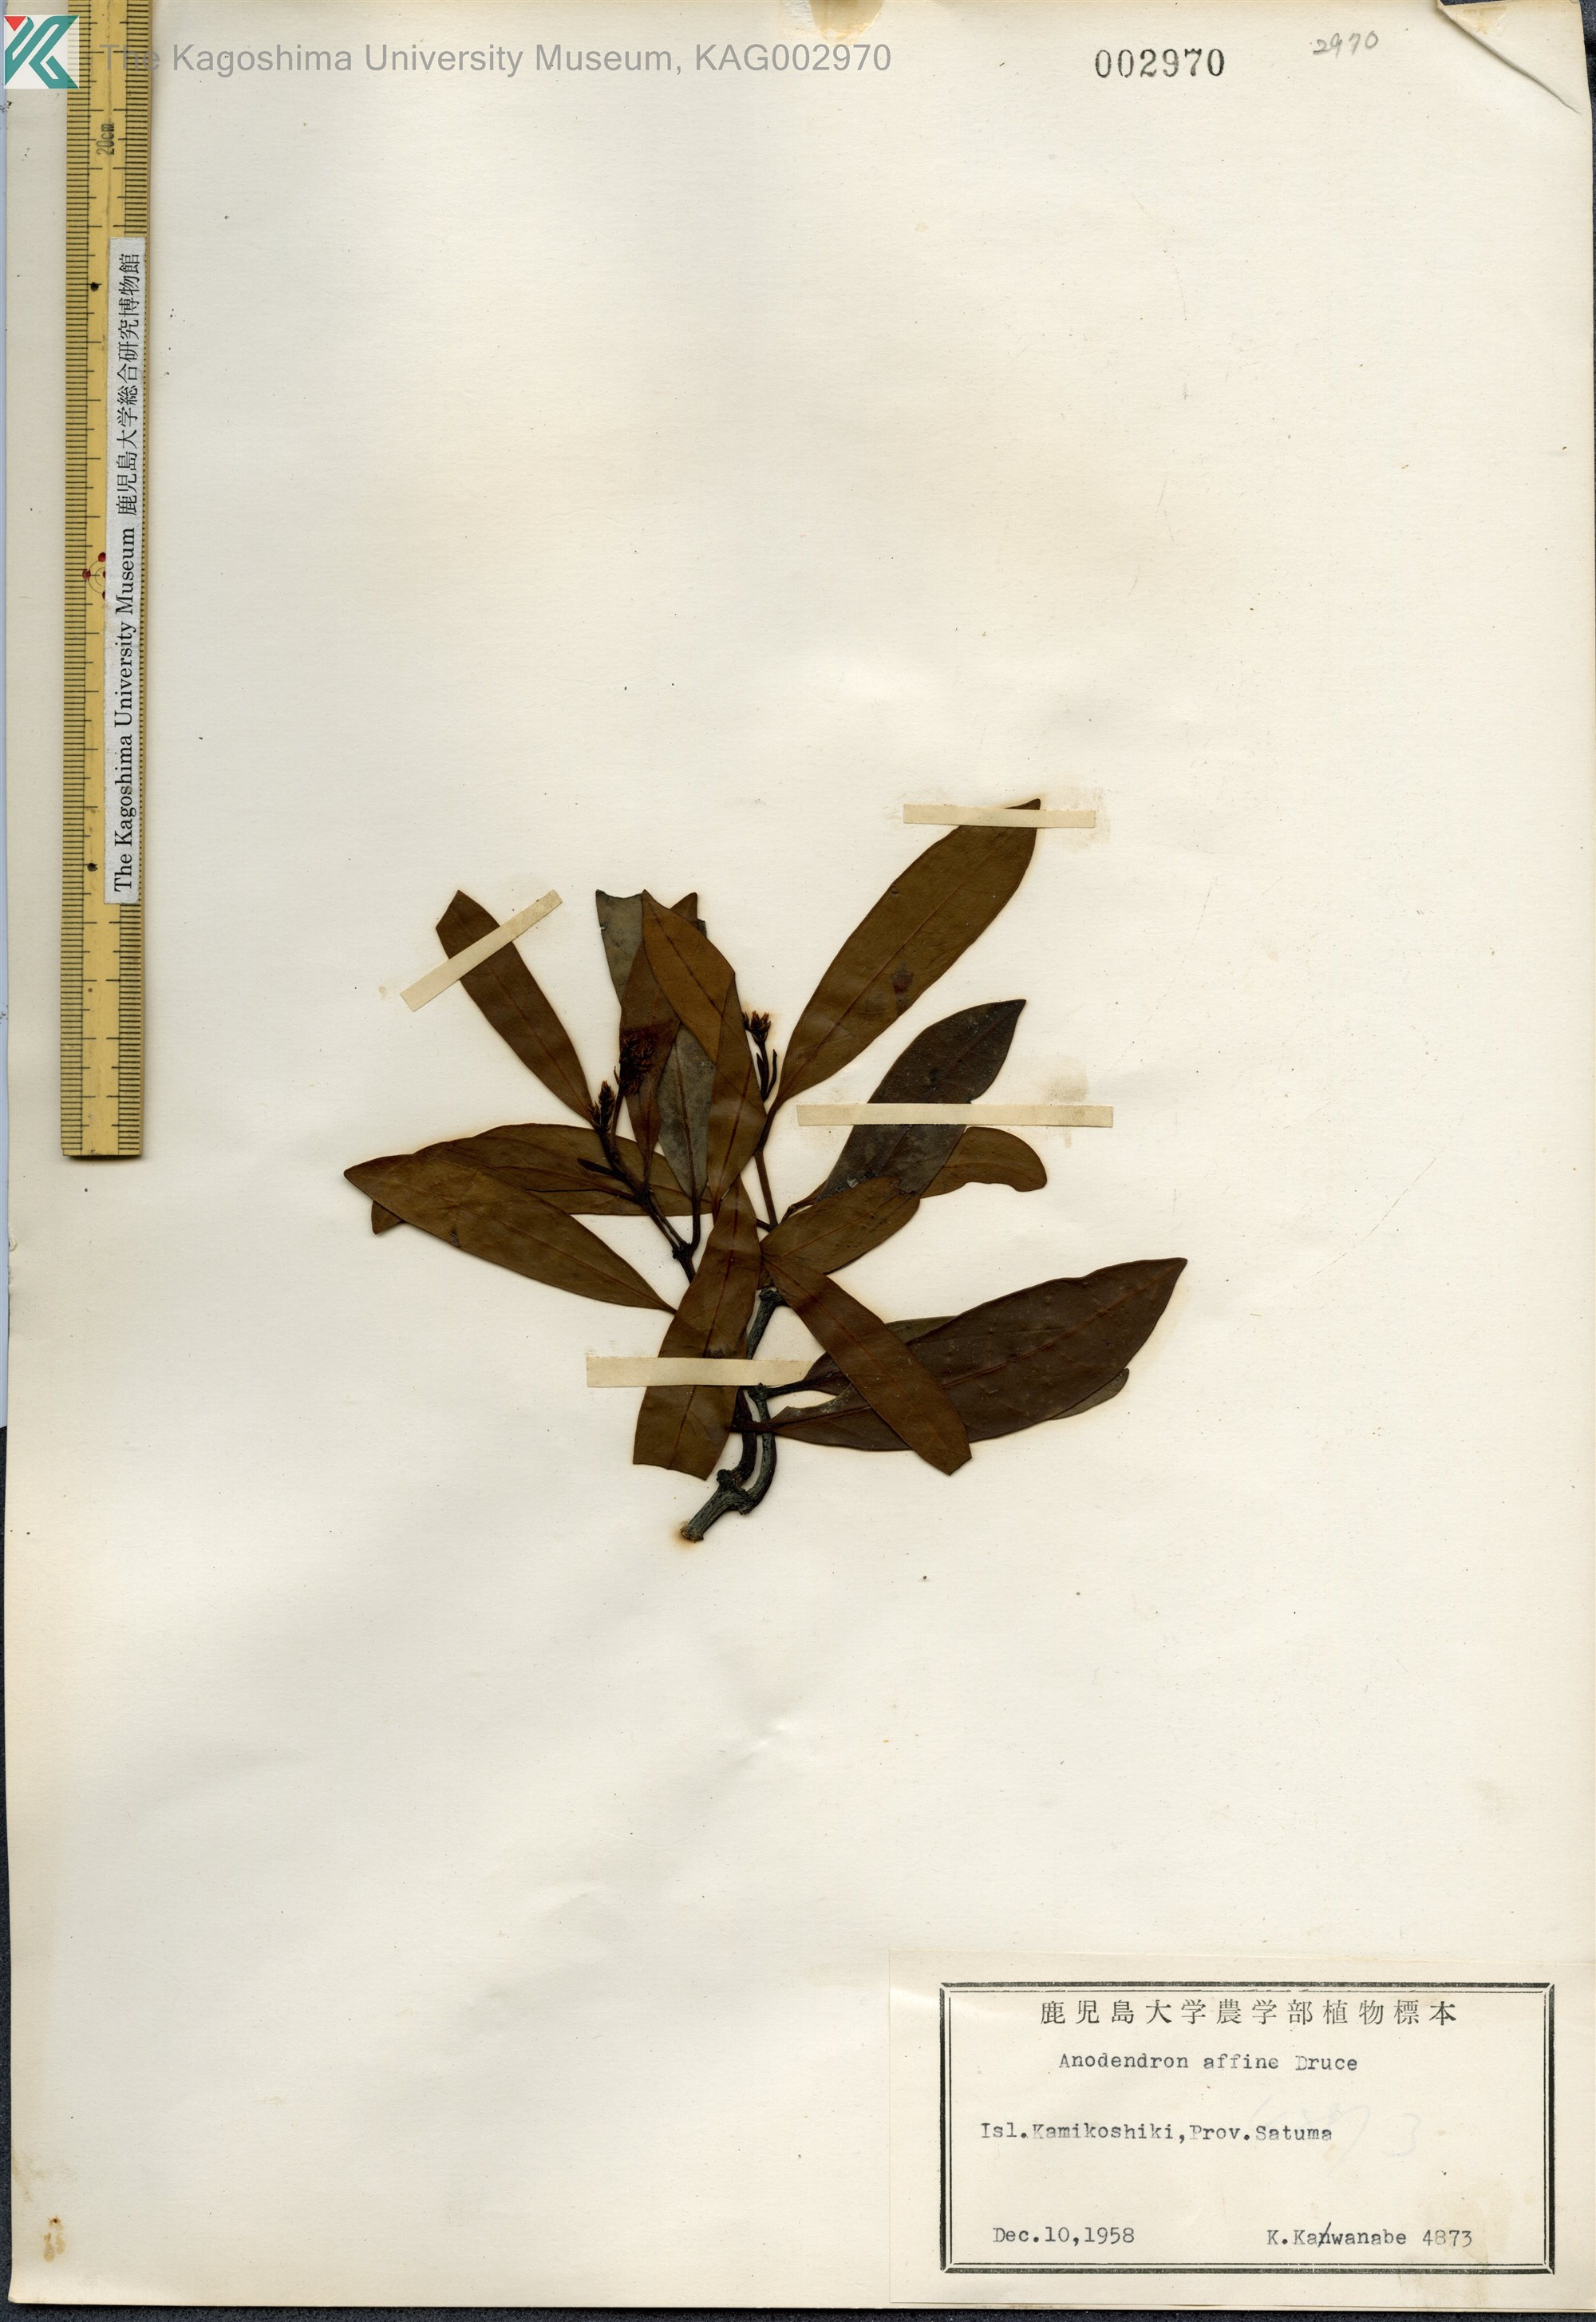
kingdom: Plantae
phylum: Tracheophyta
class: Magnoliopsida
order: Gentianales
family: Apocynaceae
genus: Anodendron
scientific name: Anodendron affine
